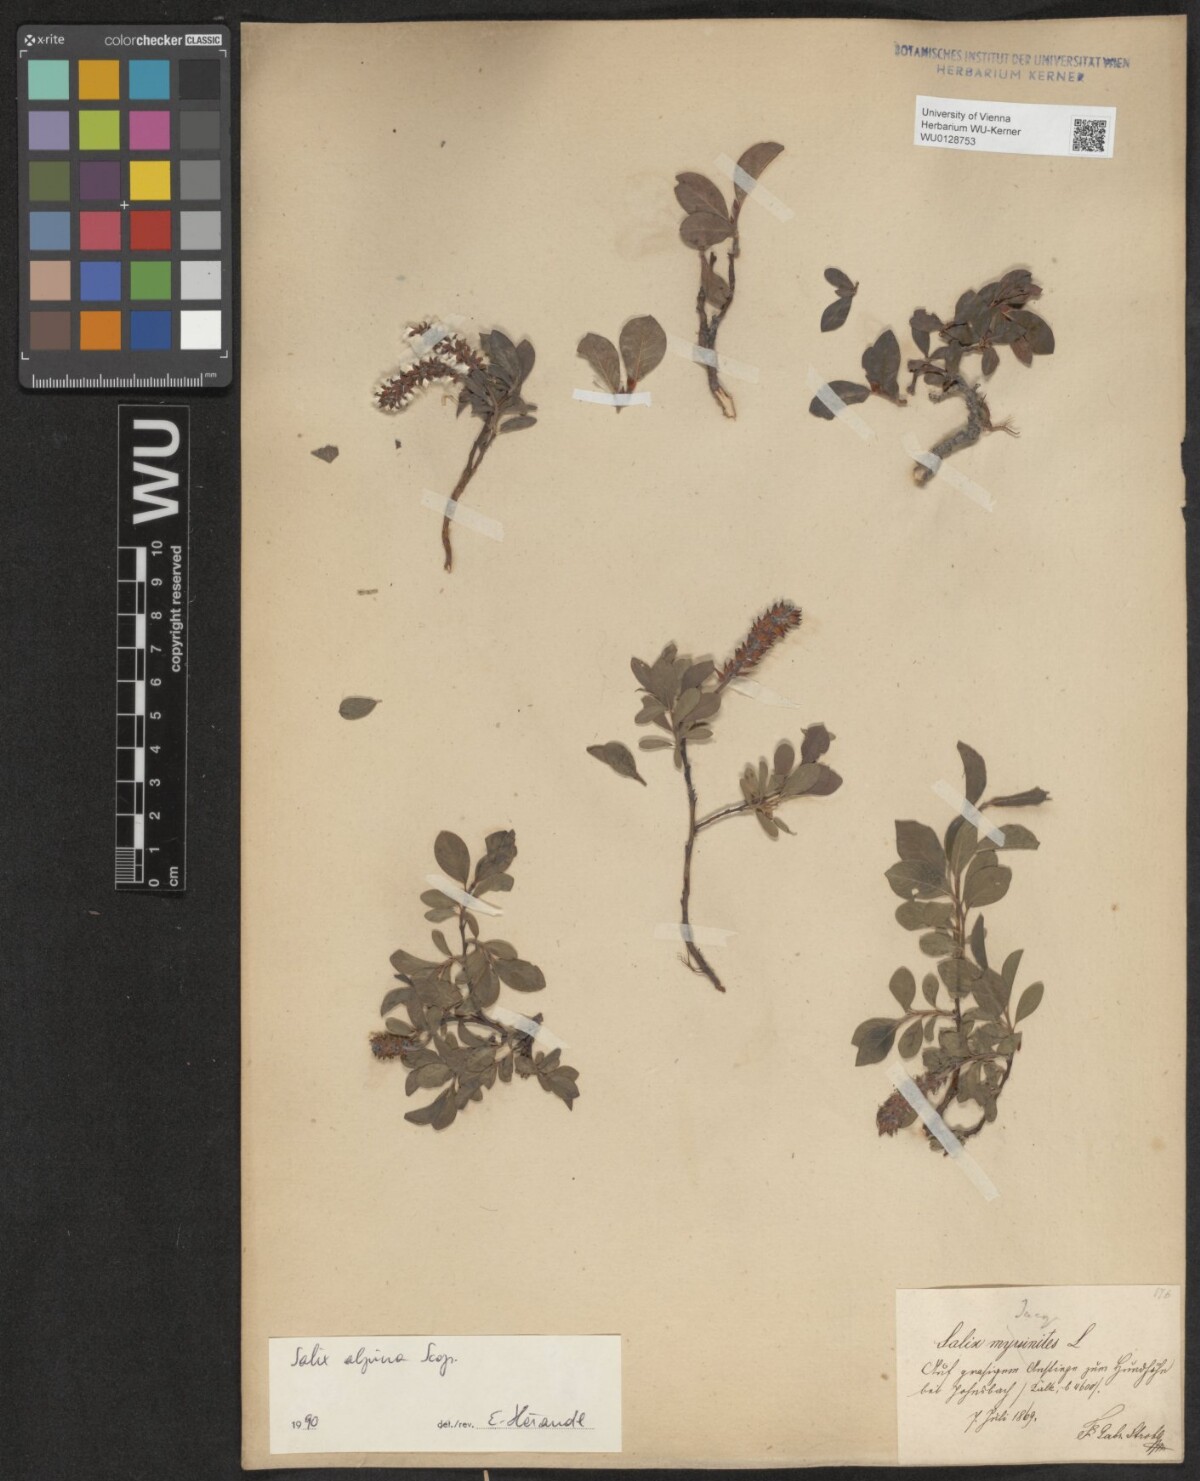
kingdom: Plantae
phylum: Tracheophyta
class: Magnoliopsida
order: Malpighiales
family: Salicaceae
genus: Salix
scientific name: Salix alpina
